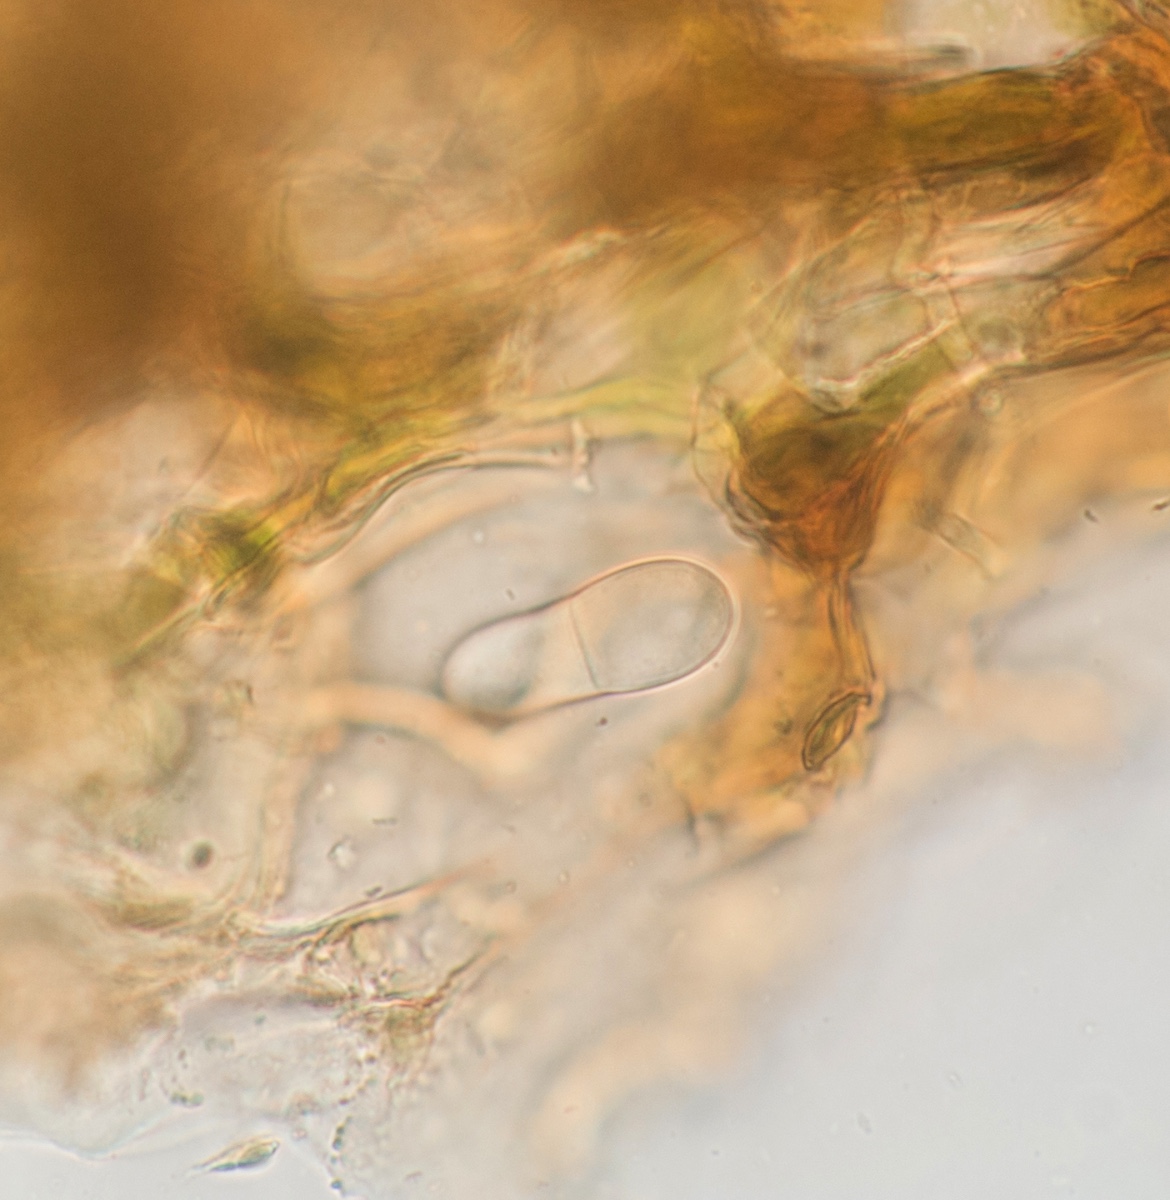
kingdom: Fungi
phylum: Ascomycota
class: Dothideomycetes
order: Mycosphaerellales
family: Mycosphaerellaceae
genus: Ramularia
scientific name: Ramularia simplex
